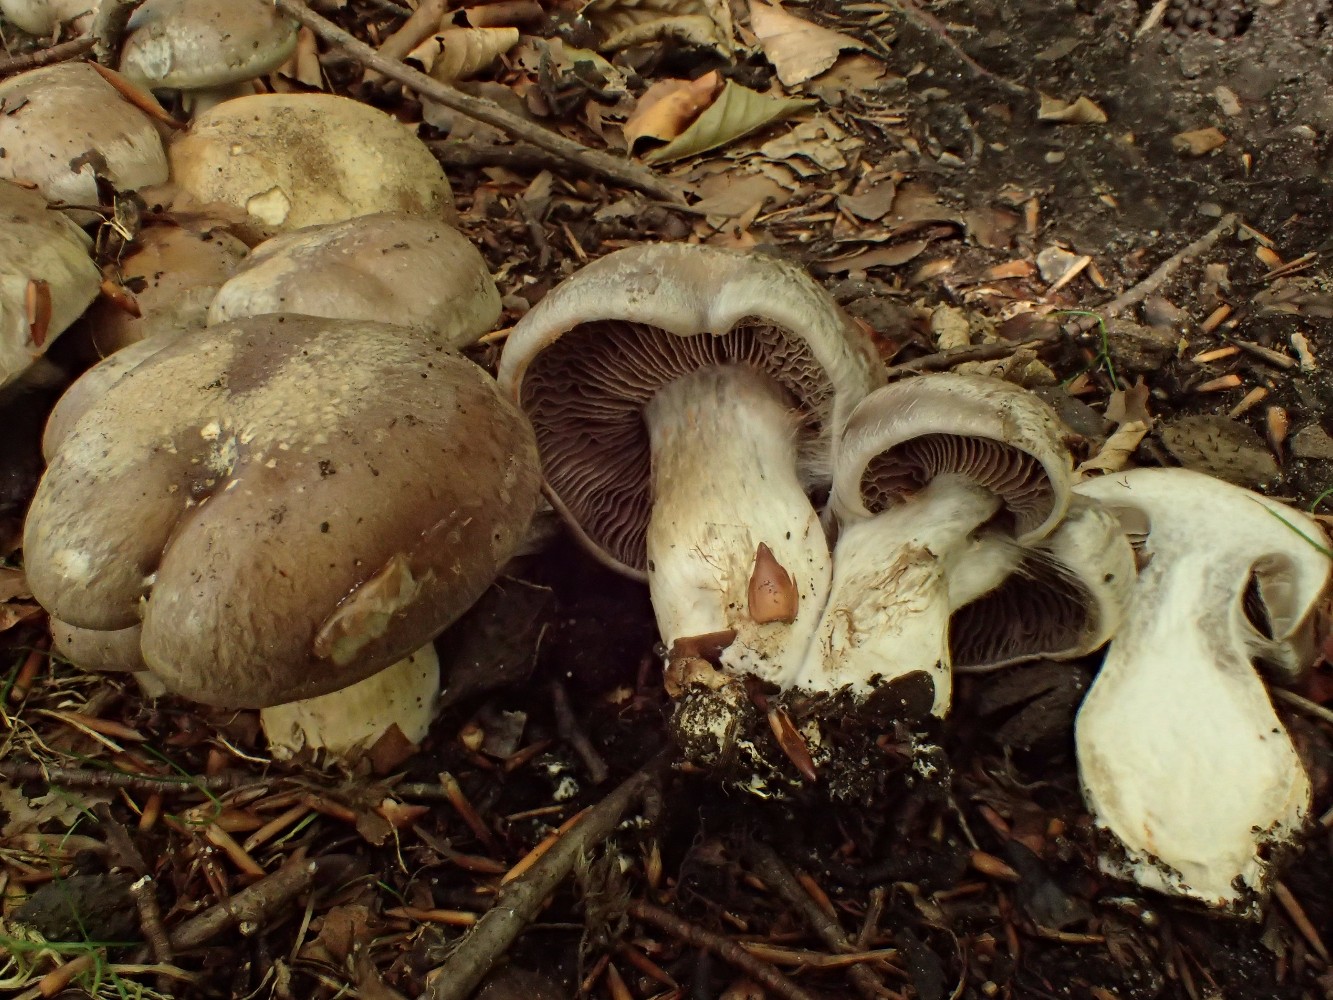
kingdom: Fungi
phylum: Basidiomycota
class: Agaricomycetes
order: Agaricales
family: Cortinariaceae
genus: Cortinarius
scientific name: Cortinarius
